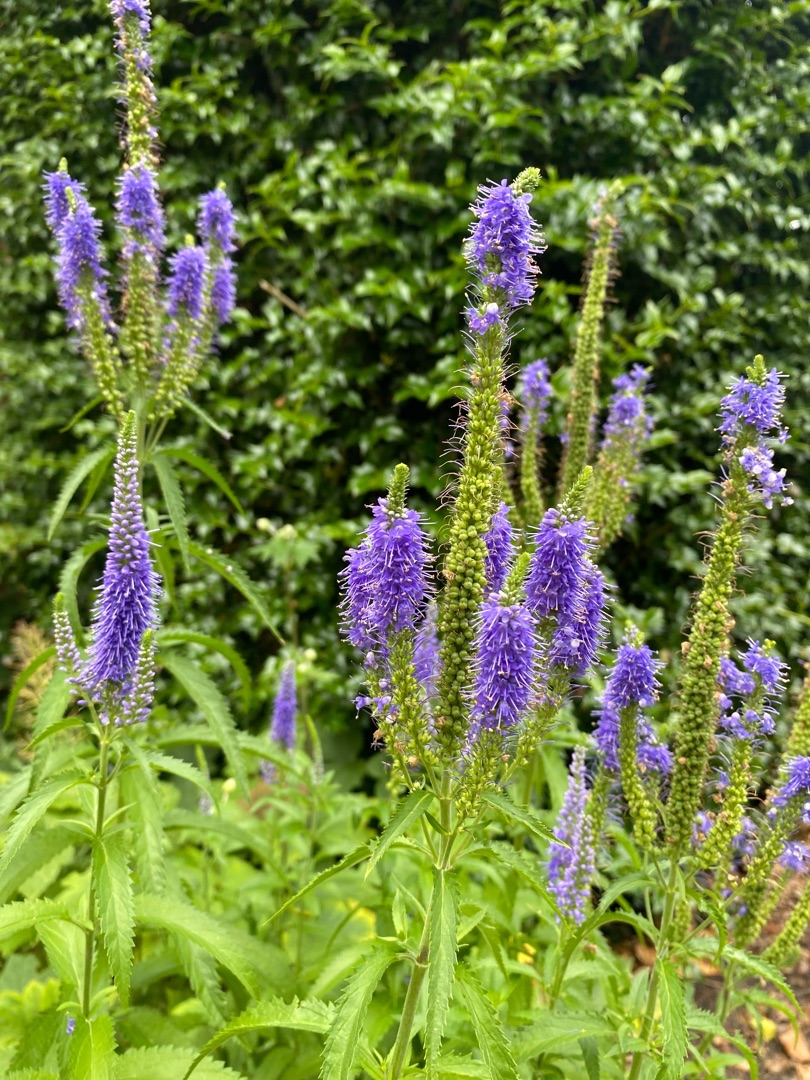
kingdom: Plantae
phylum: Tracheophyta
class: Magnoliopsida
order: Lamiales
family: Plantaginaceae
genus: Veronica
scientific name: Veronica longifolia
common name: Langbladet ærenpris
